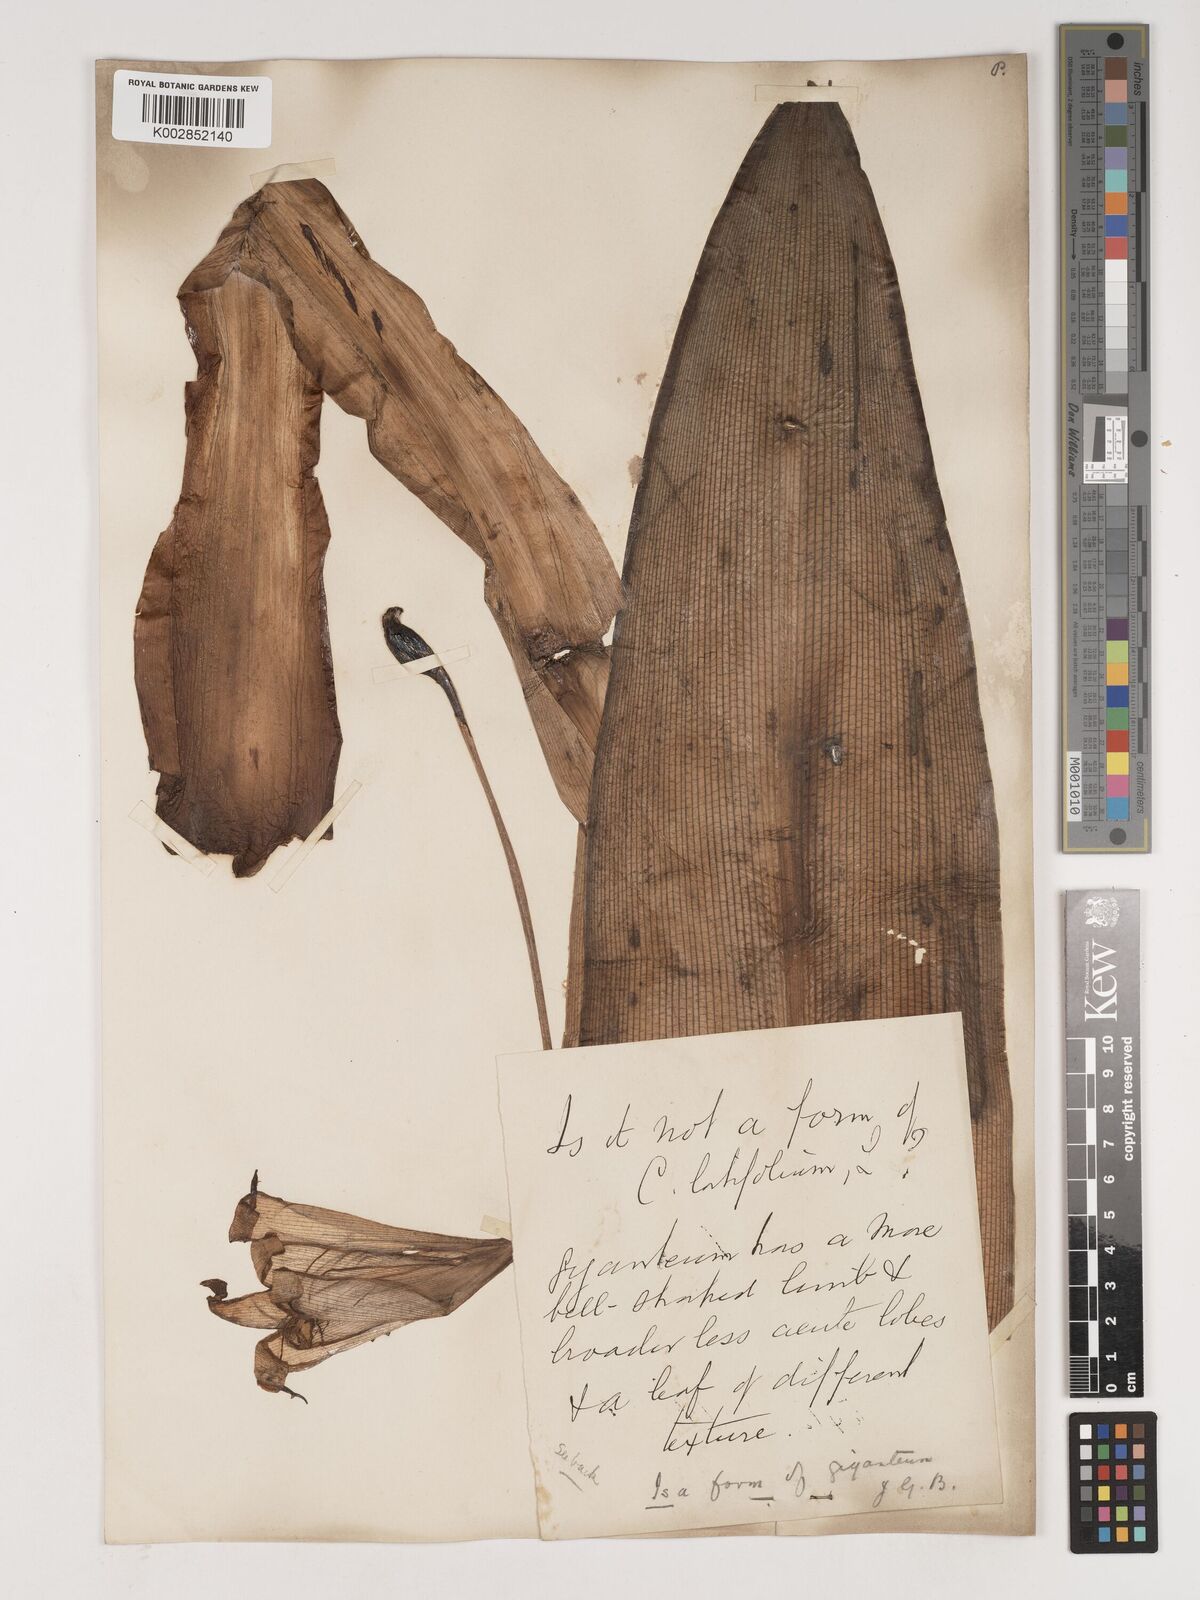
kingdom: Plantae
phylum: Tracheophyta
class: Liliopsida
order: Asparagales
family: Amaryllidaceae
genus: Crinum
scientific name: Crinum jagus
